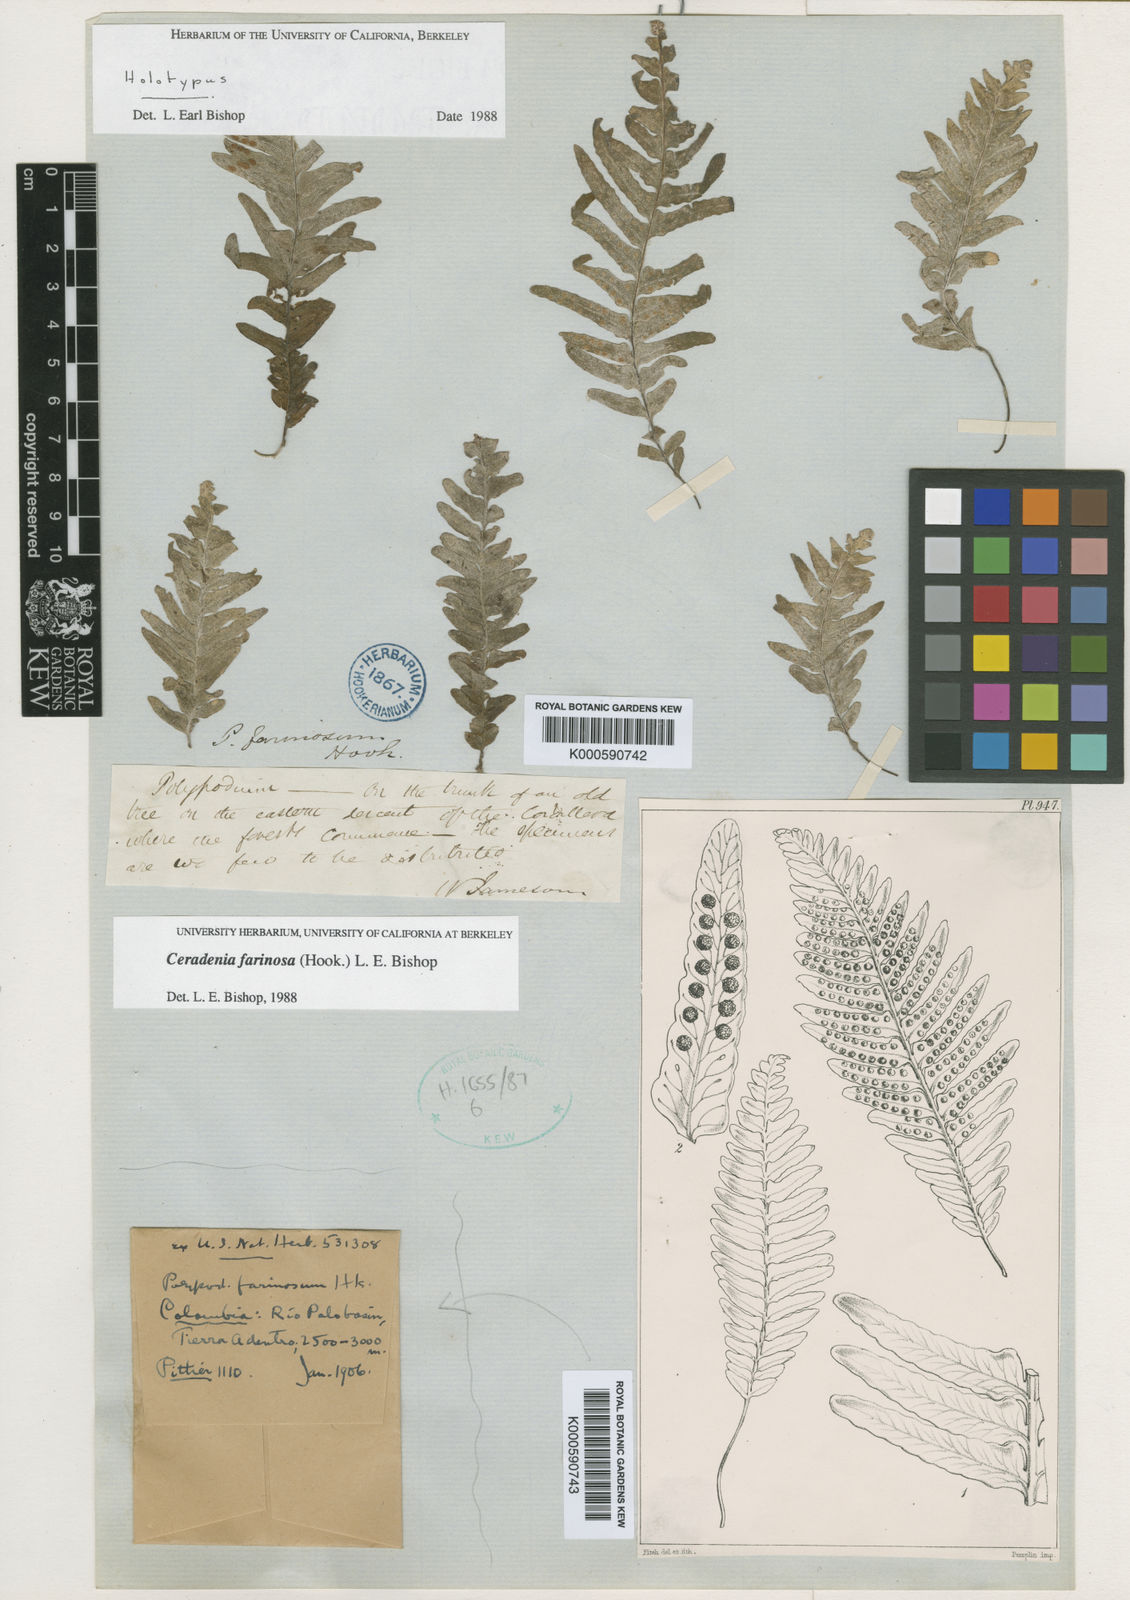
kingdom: Plantae
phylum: Tracheophyta
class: Polypodiopsida
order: Polypodiales
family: Polypodiaceae
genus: Ceradenia
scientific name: Ceradenia farinosa
